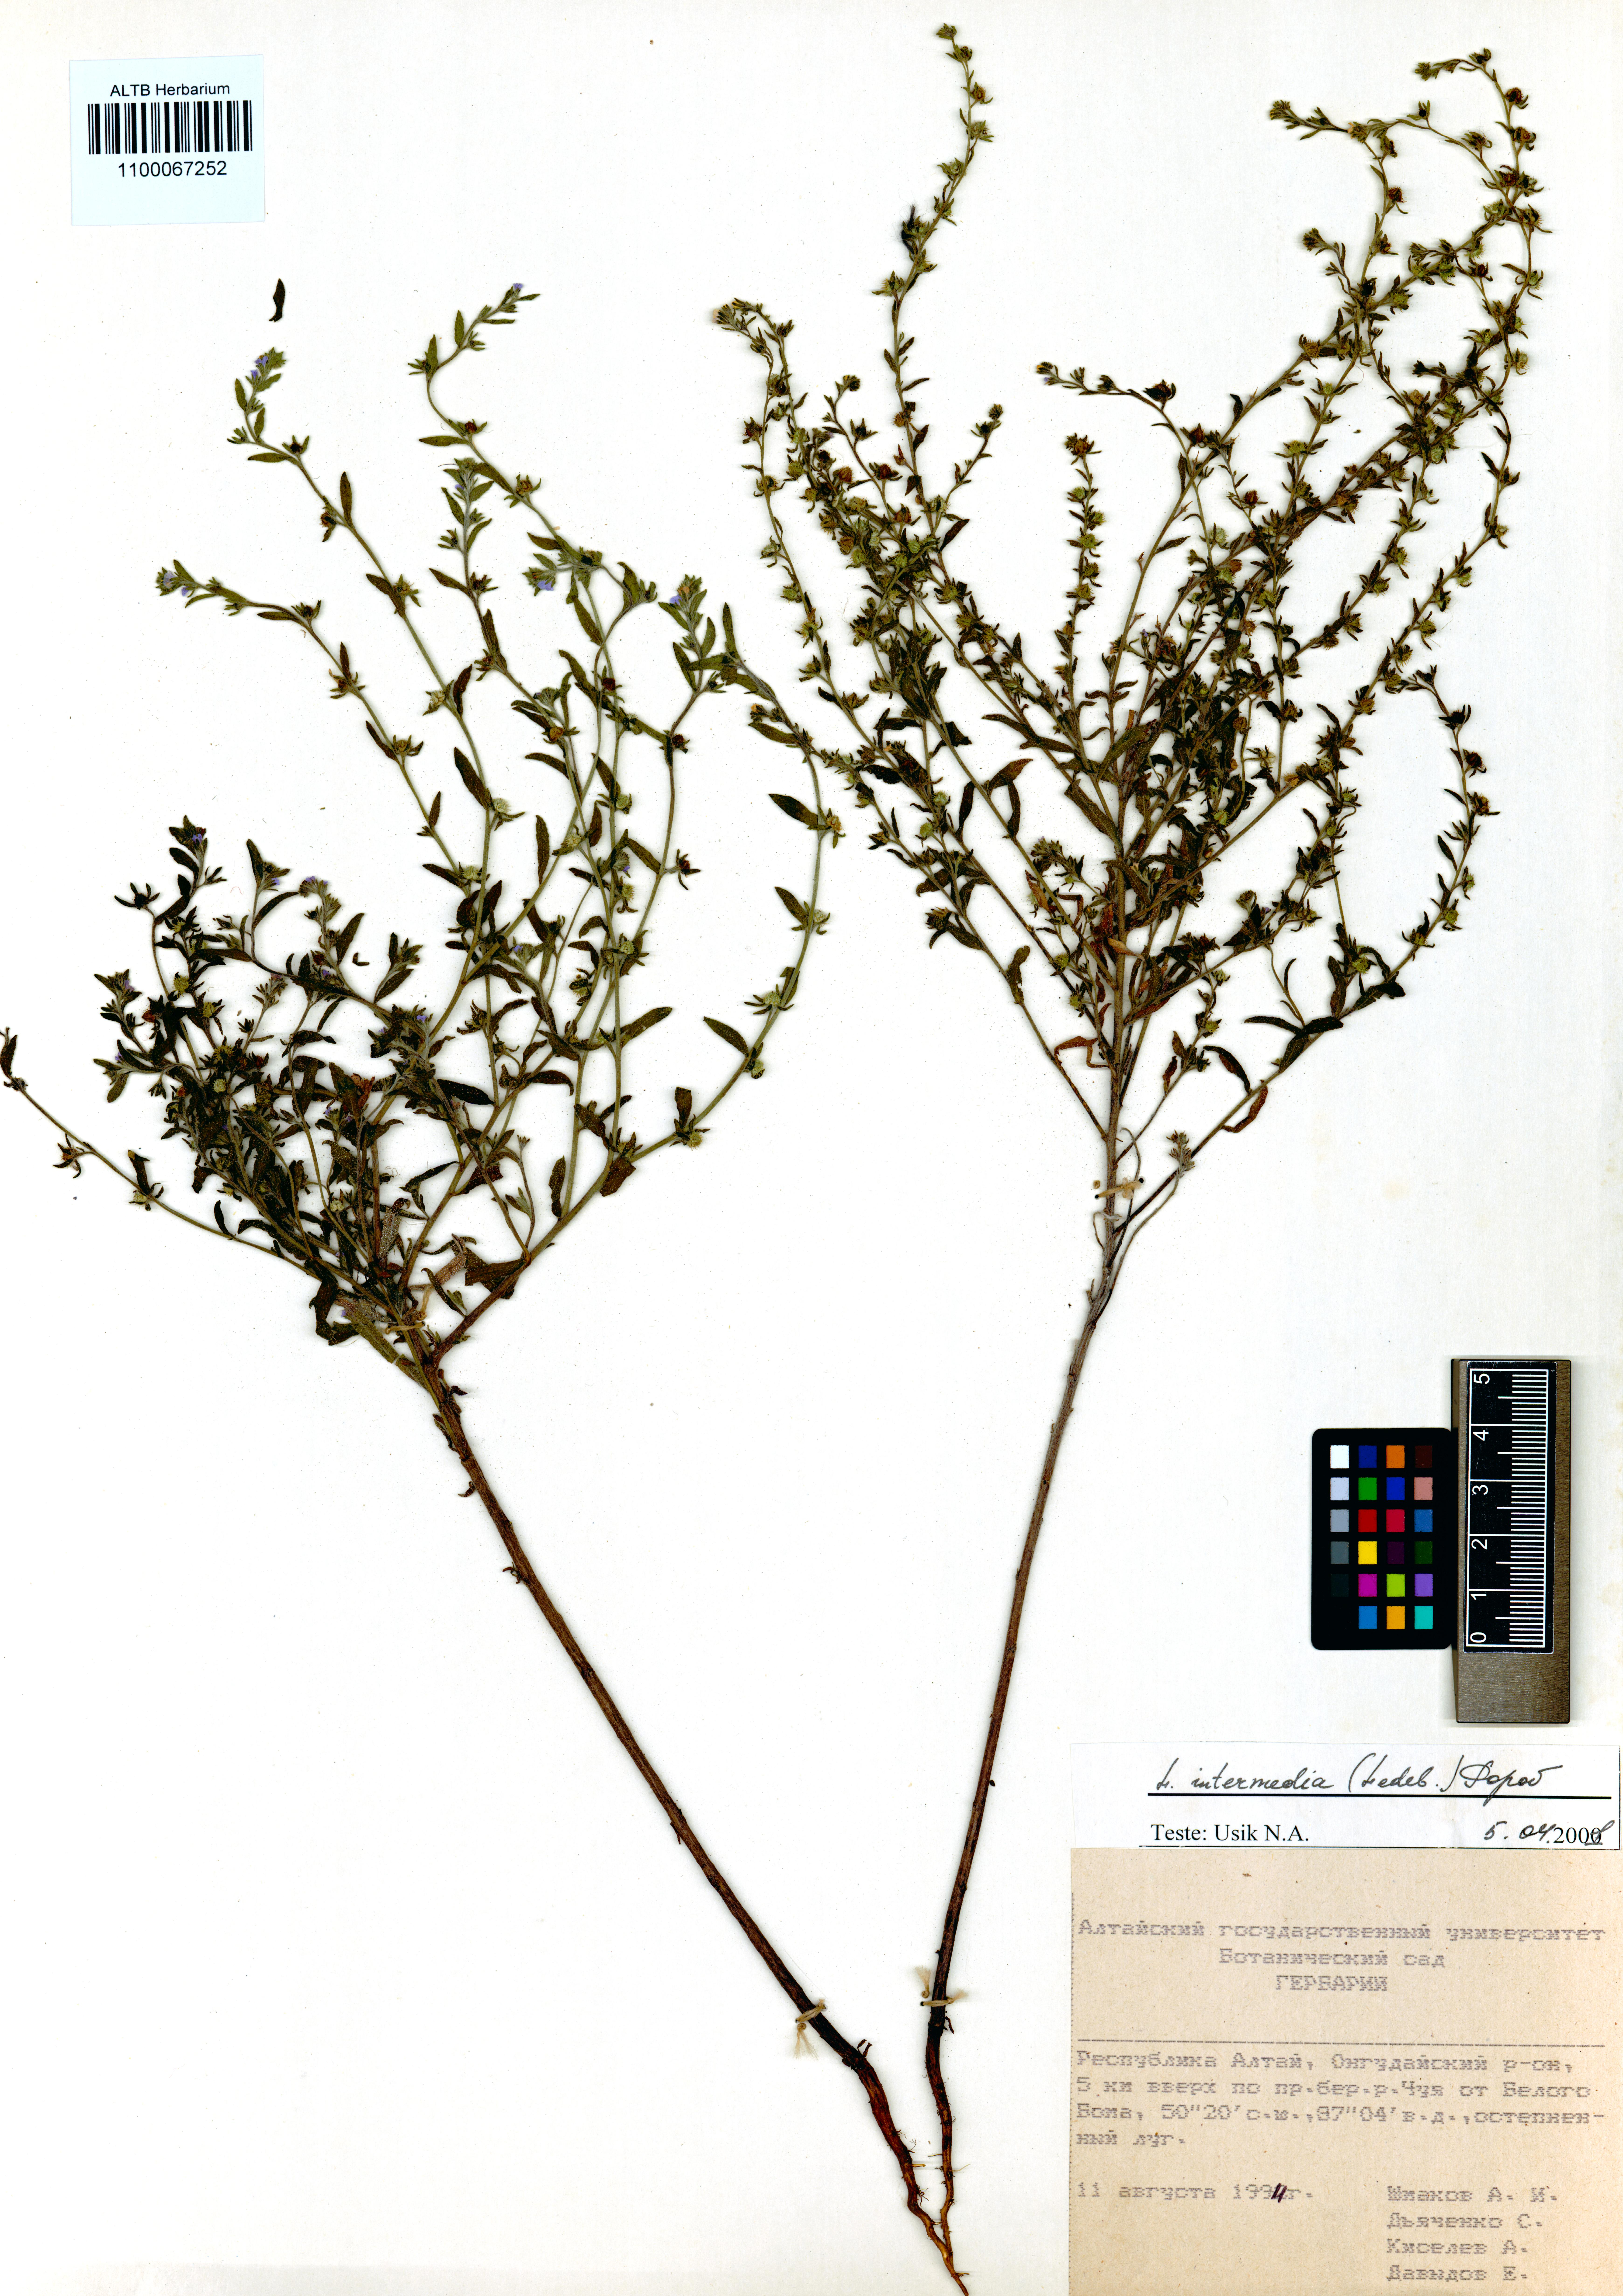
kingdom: Plantae
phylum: Tracheophyta
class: Magnoliopsida
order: Boraginales
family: Boraginaceae
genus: Lappula
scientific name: Lappula intermedia
